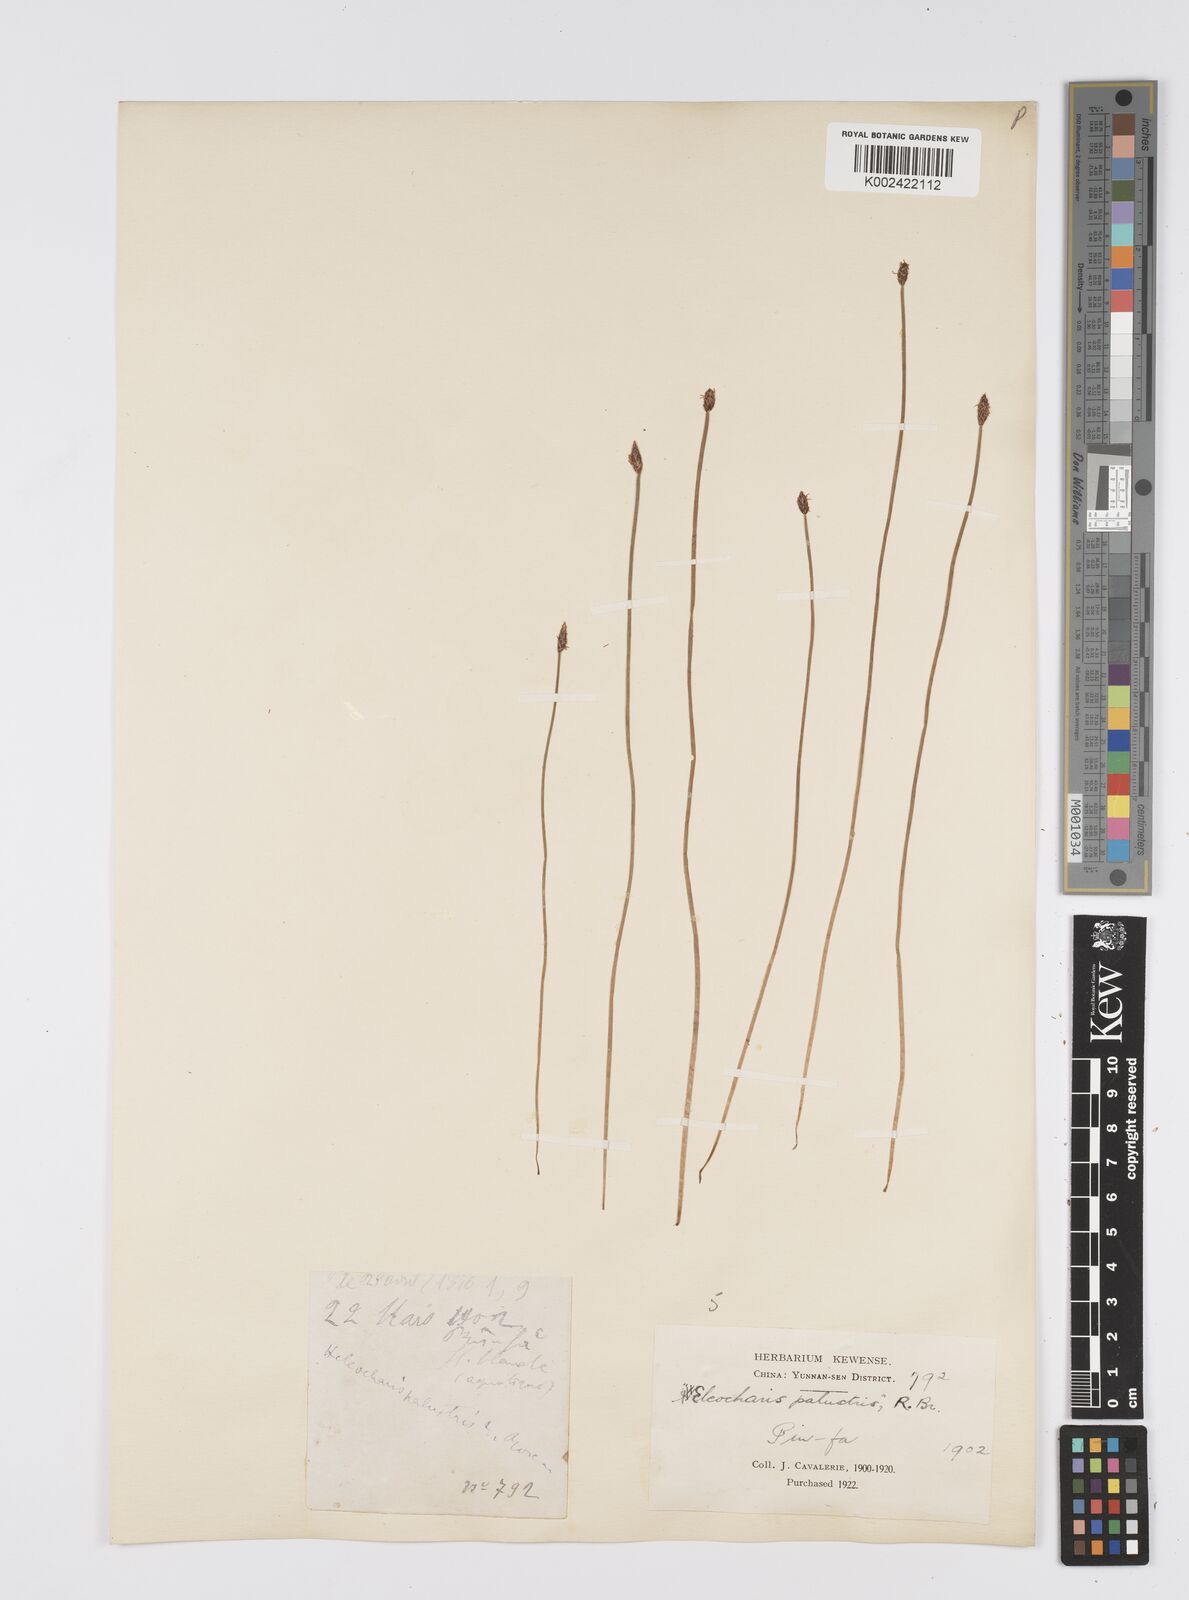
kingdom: Plantae
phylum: Tracheophyta
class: Liliopsida
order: Poales
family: Cyperaceae
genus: Eleocharis
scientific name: Eleocharis palustris
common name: Common spike-rush
